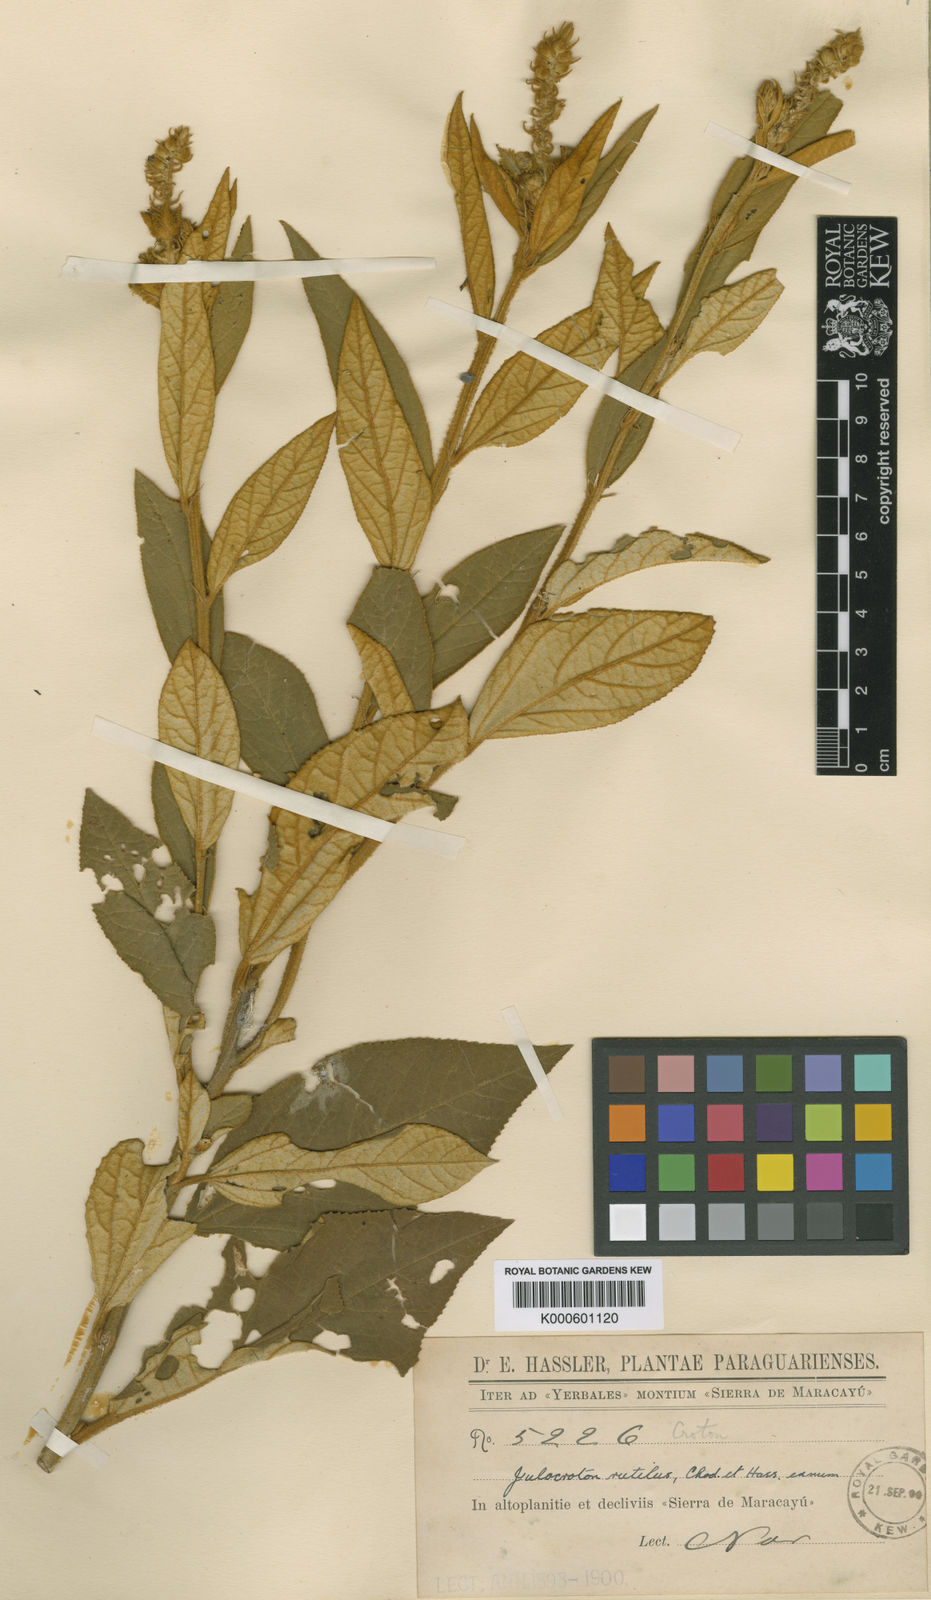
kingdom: Plantae
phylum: Tracheophyta
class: Magnoliopsida
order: Malpighiales
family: Euphorbiaceae
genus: Croton
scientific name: Croton rutilus
